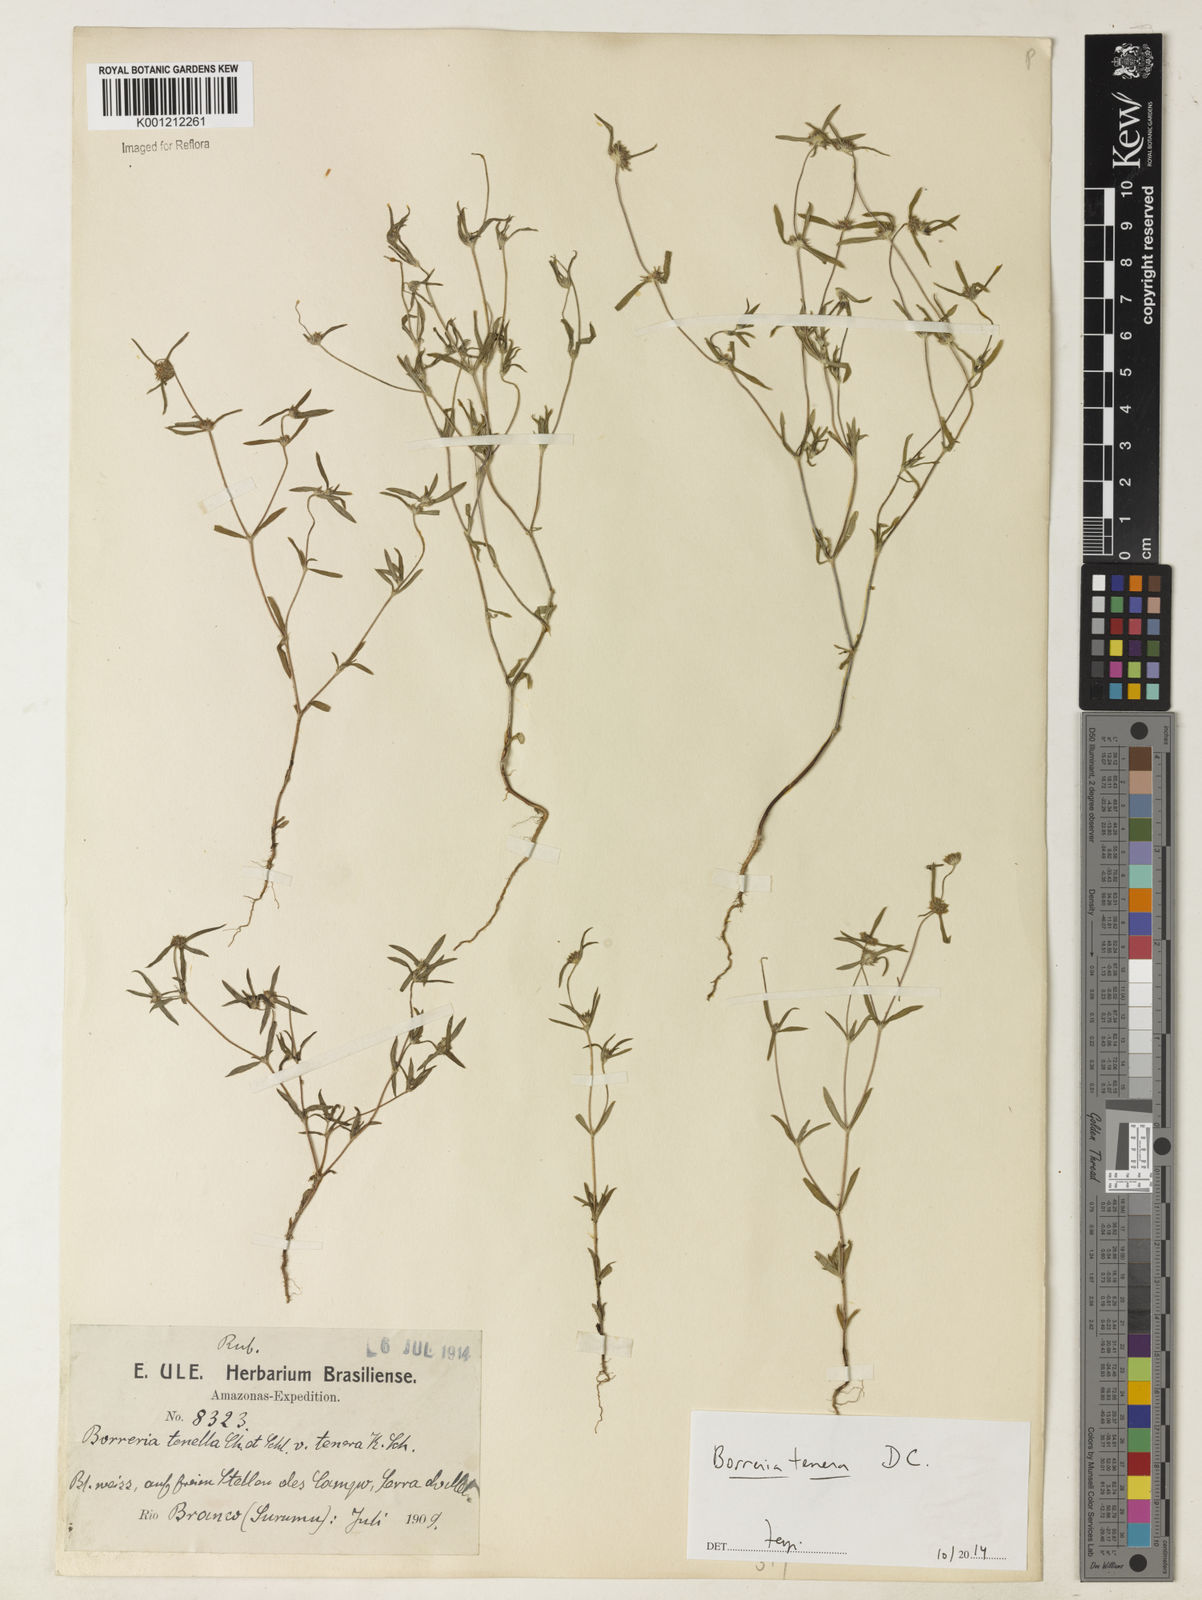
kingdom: Plantae
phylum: Tracheophyta
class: Magnoliopsida
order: Gentianales
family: Rubiaceae
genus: Spermacoce
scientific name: Spermacoce pohliana
